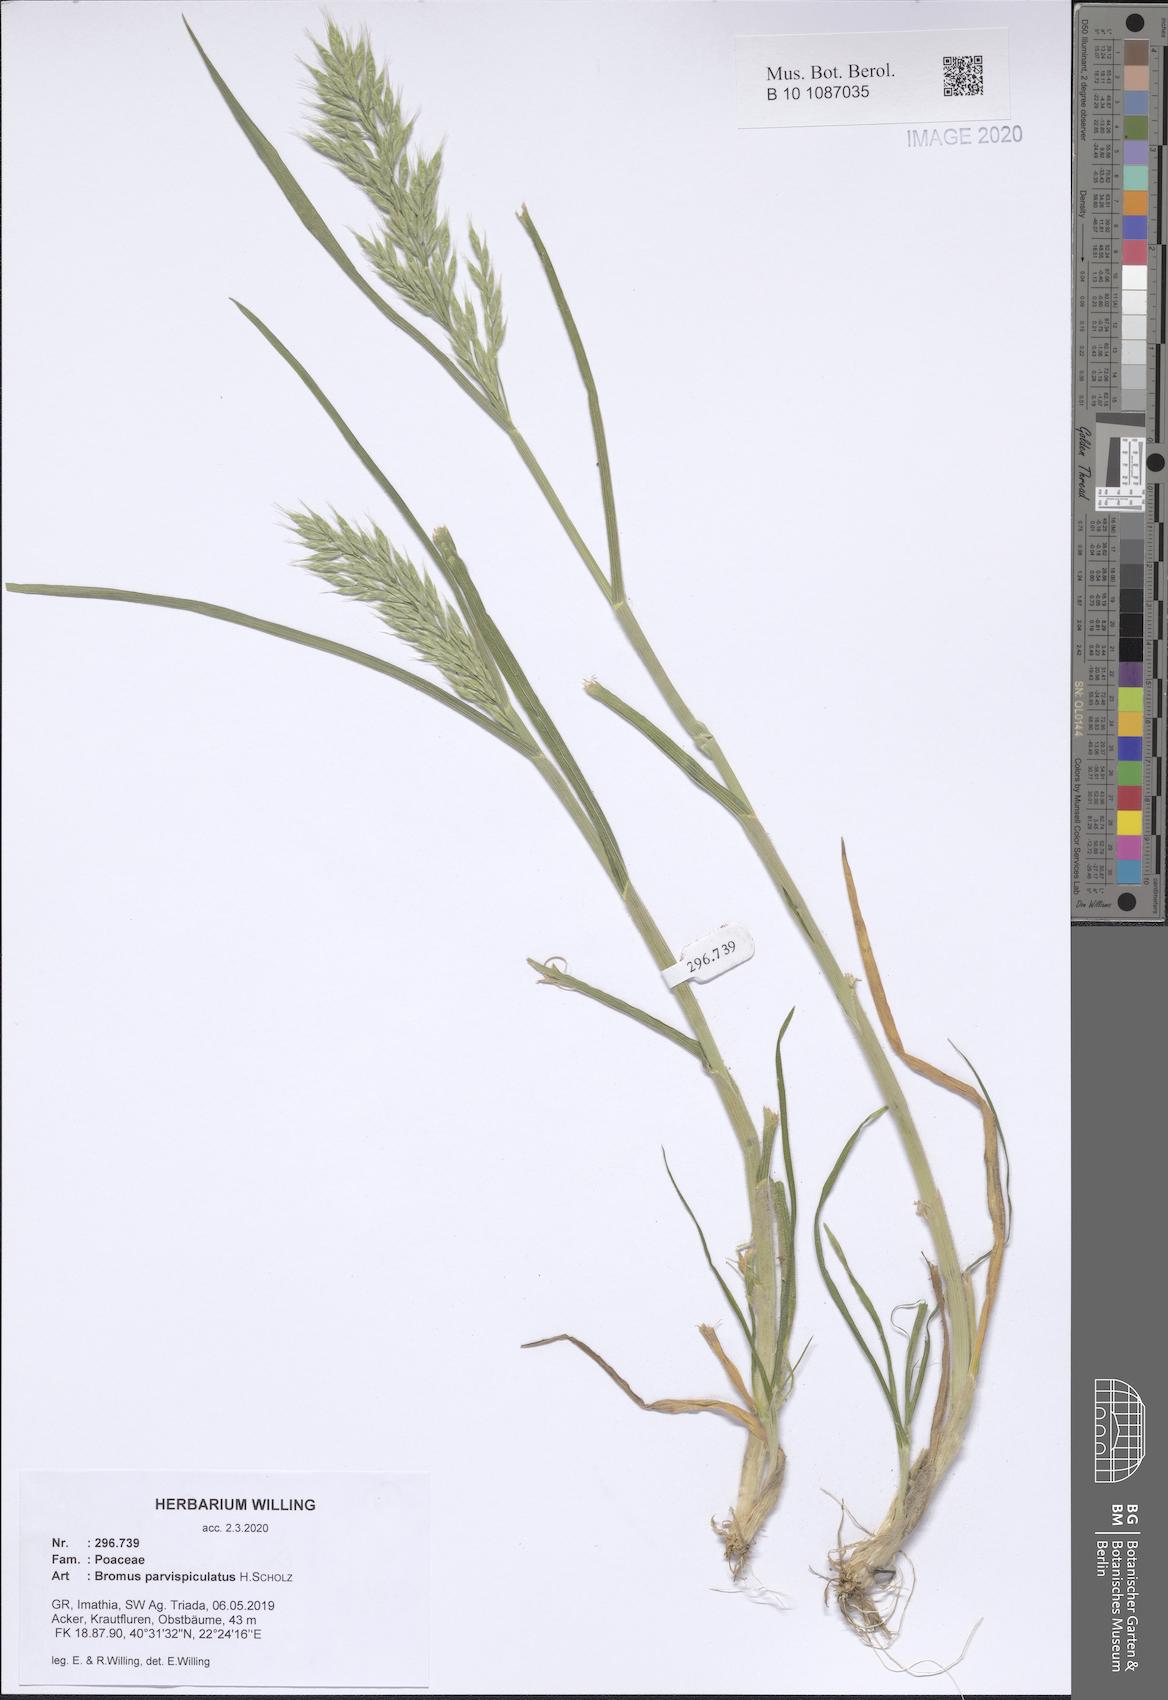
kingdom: Plantae
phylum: Tracheophyta
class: Liliopsida
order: Poales
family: Poaceae
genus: Bromus
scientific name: Bromus hordeaceus
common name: Soft brome
